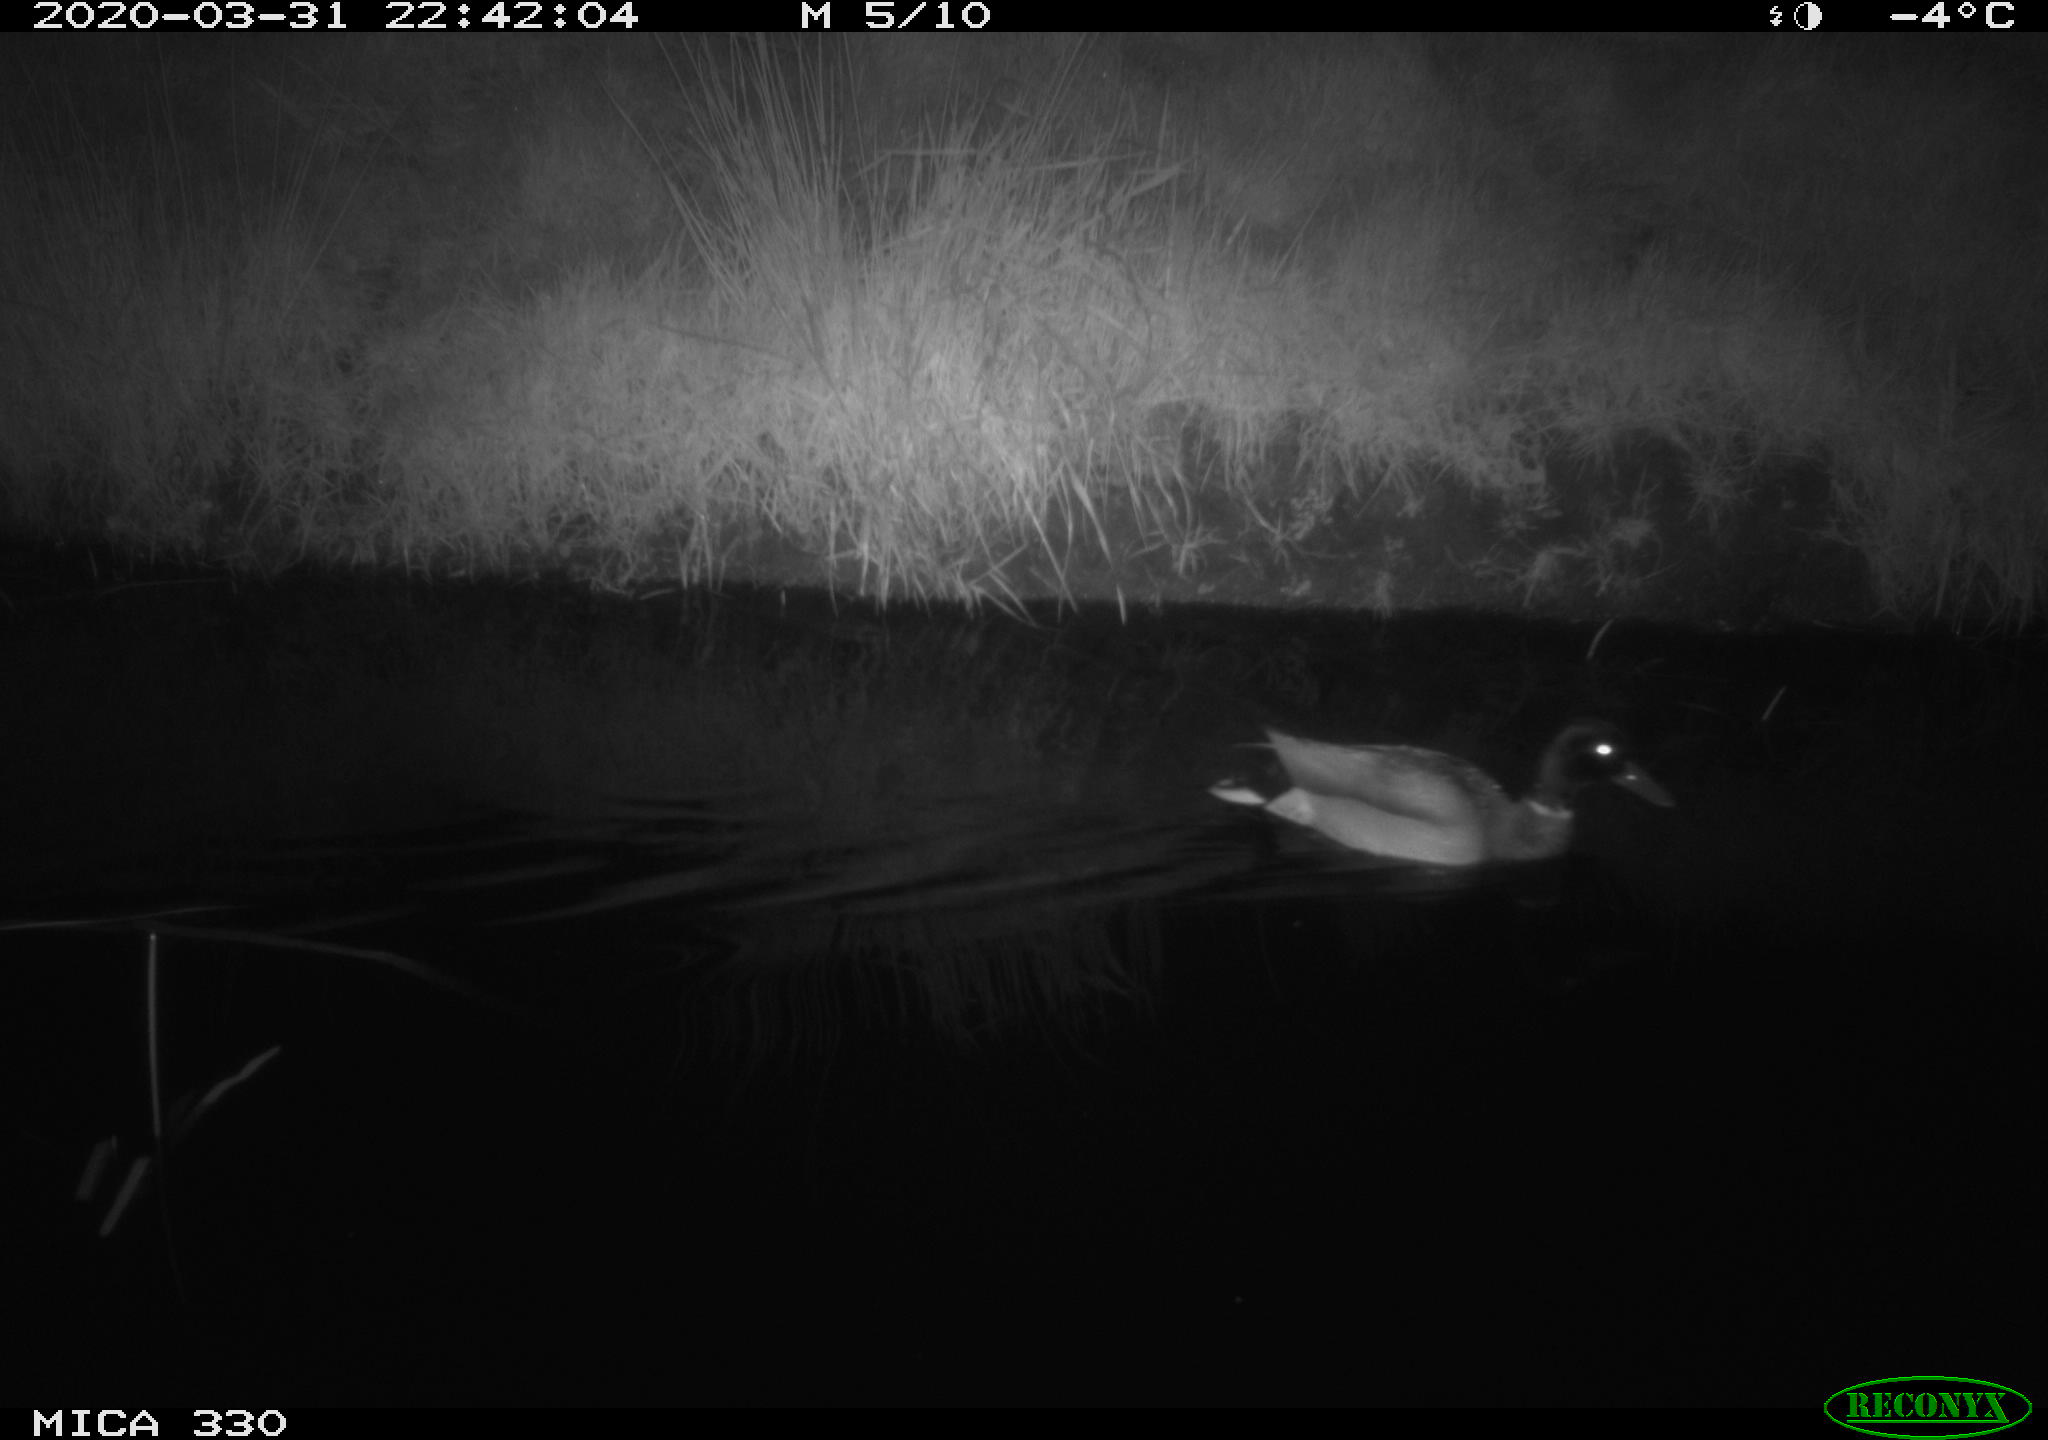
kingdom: Animalia
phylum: Chordata
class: Aves
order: Anseriformes
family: Anatidae
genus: Anas
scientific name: Anas platyrhynchos
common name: Mallard
